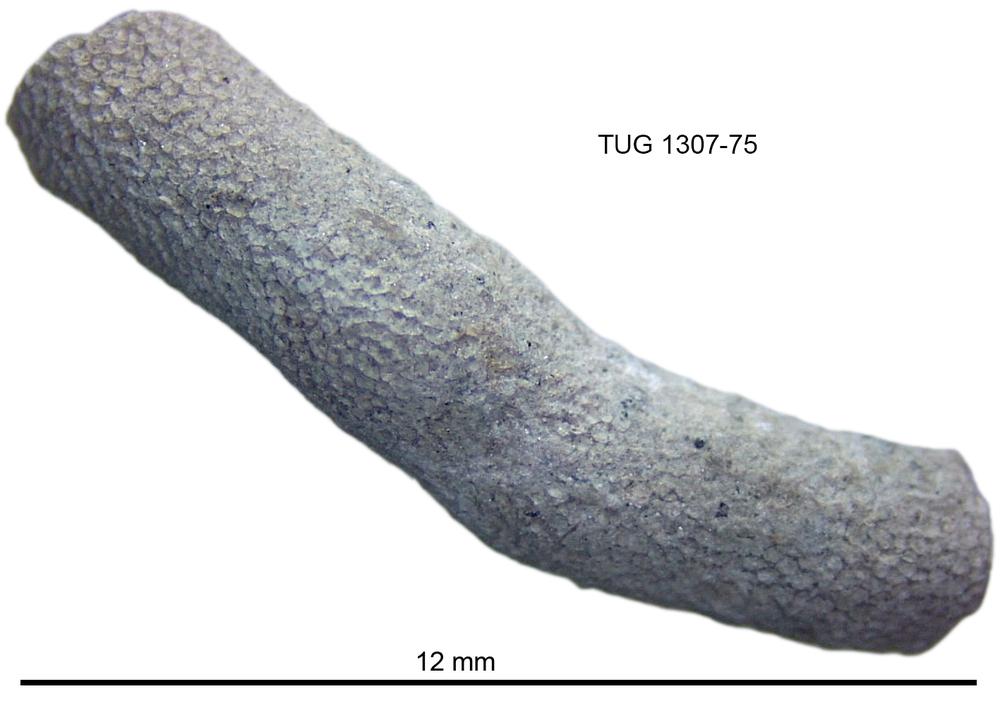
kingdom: Animalia
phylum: Bryozoa
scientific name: Bryozoa
